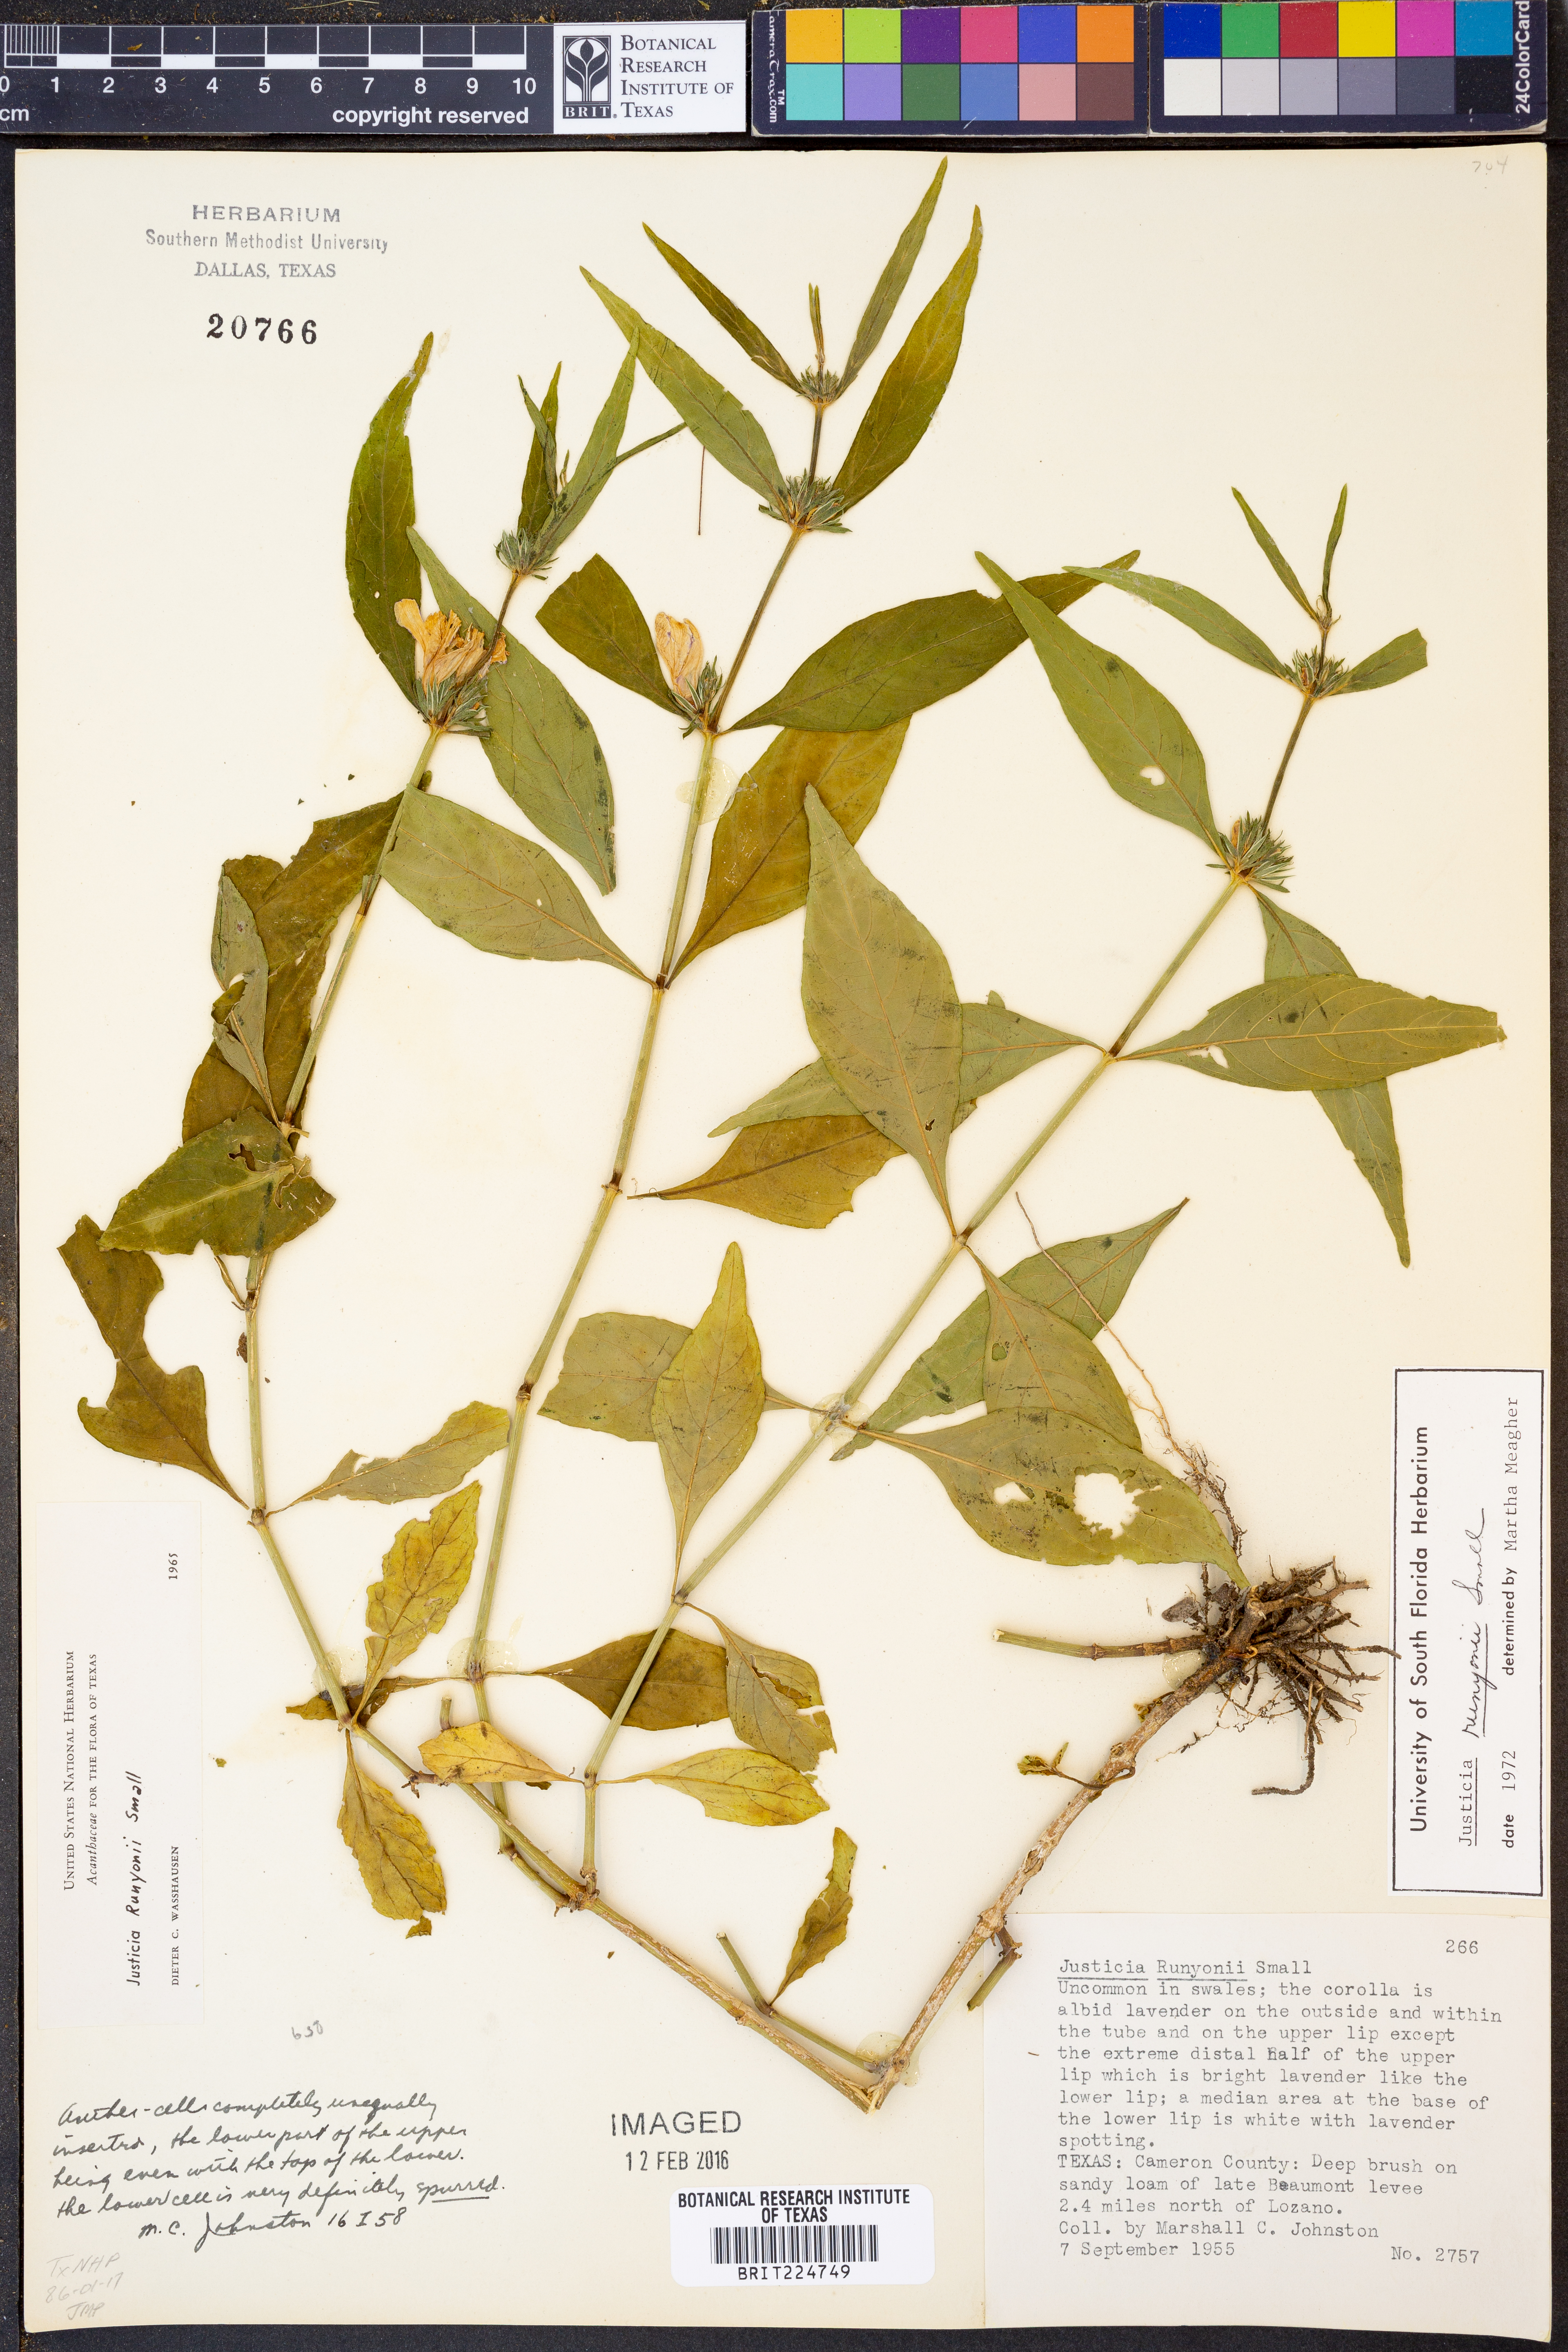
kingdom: Plantae
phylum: Tracheophyta
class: Magnoliopsida
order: Lamiales
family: Acanthaceae
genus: Justicia
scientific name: Justicia runyonii
